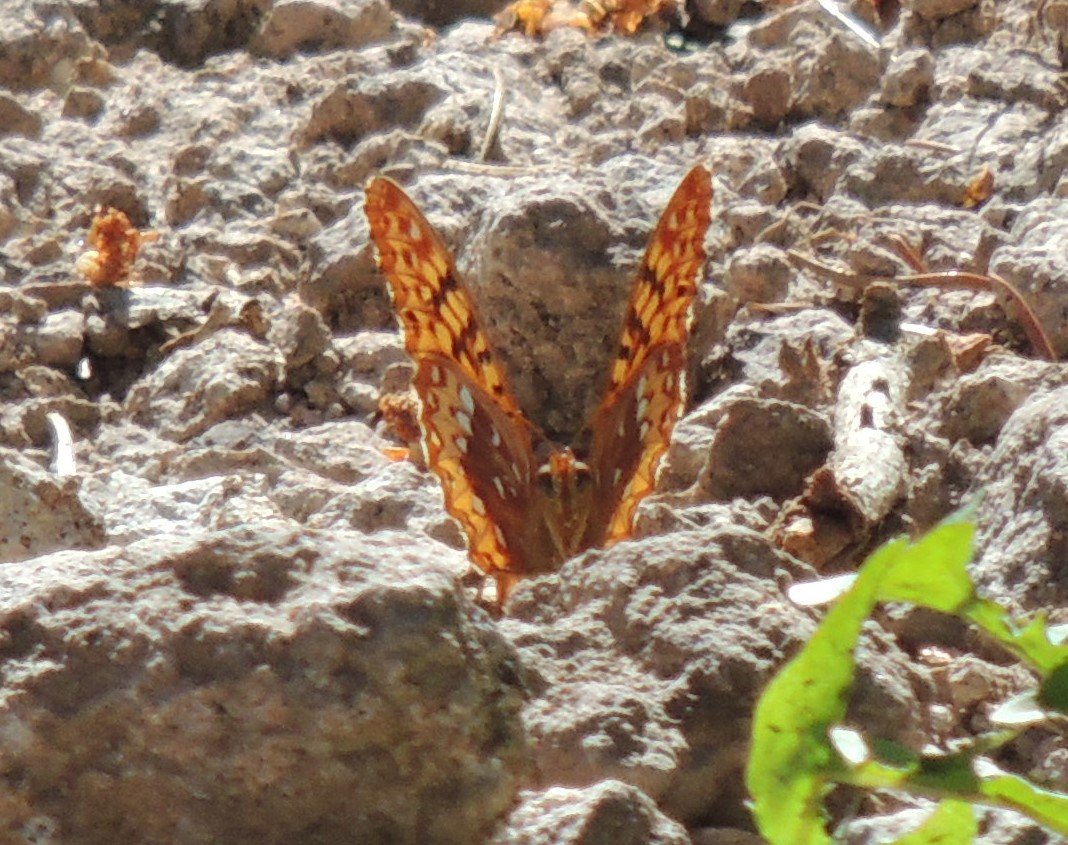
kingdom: Animalia
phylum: Arthropoda
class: Insecta
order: Lepidoptera
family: Nymphalidae
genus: Speyeria
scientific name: Speyeria cybele
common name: Great Spangled Fritillary
